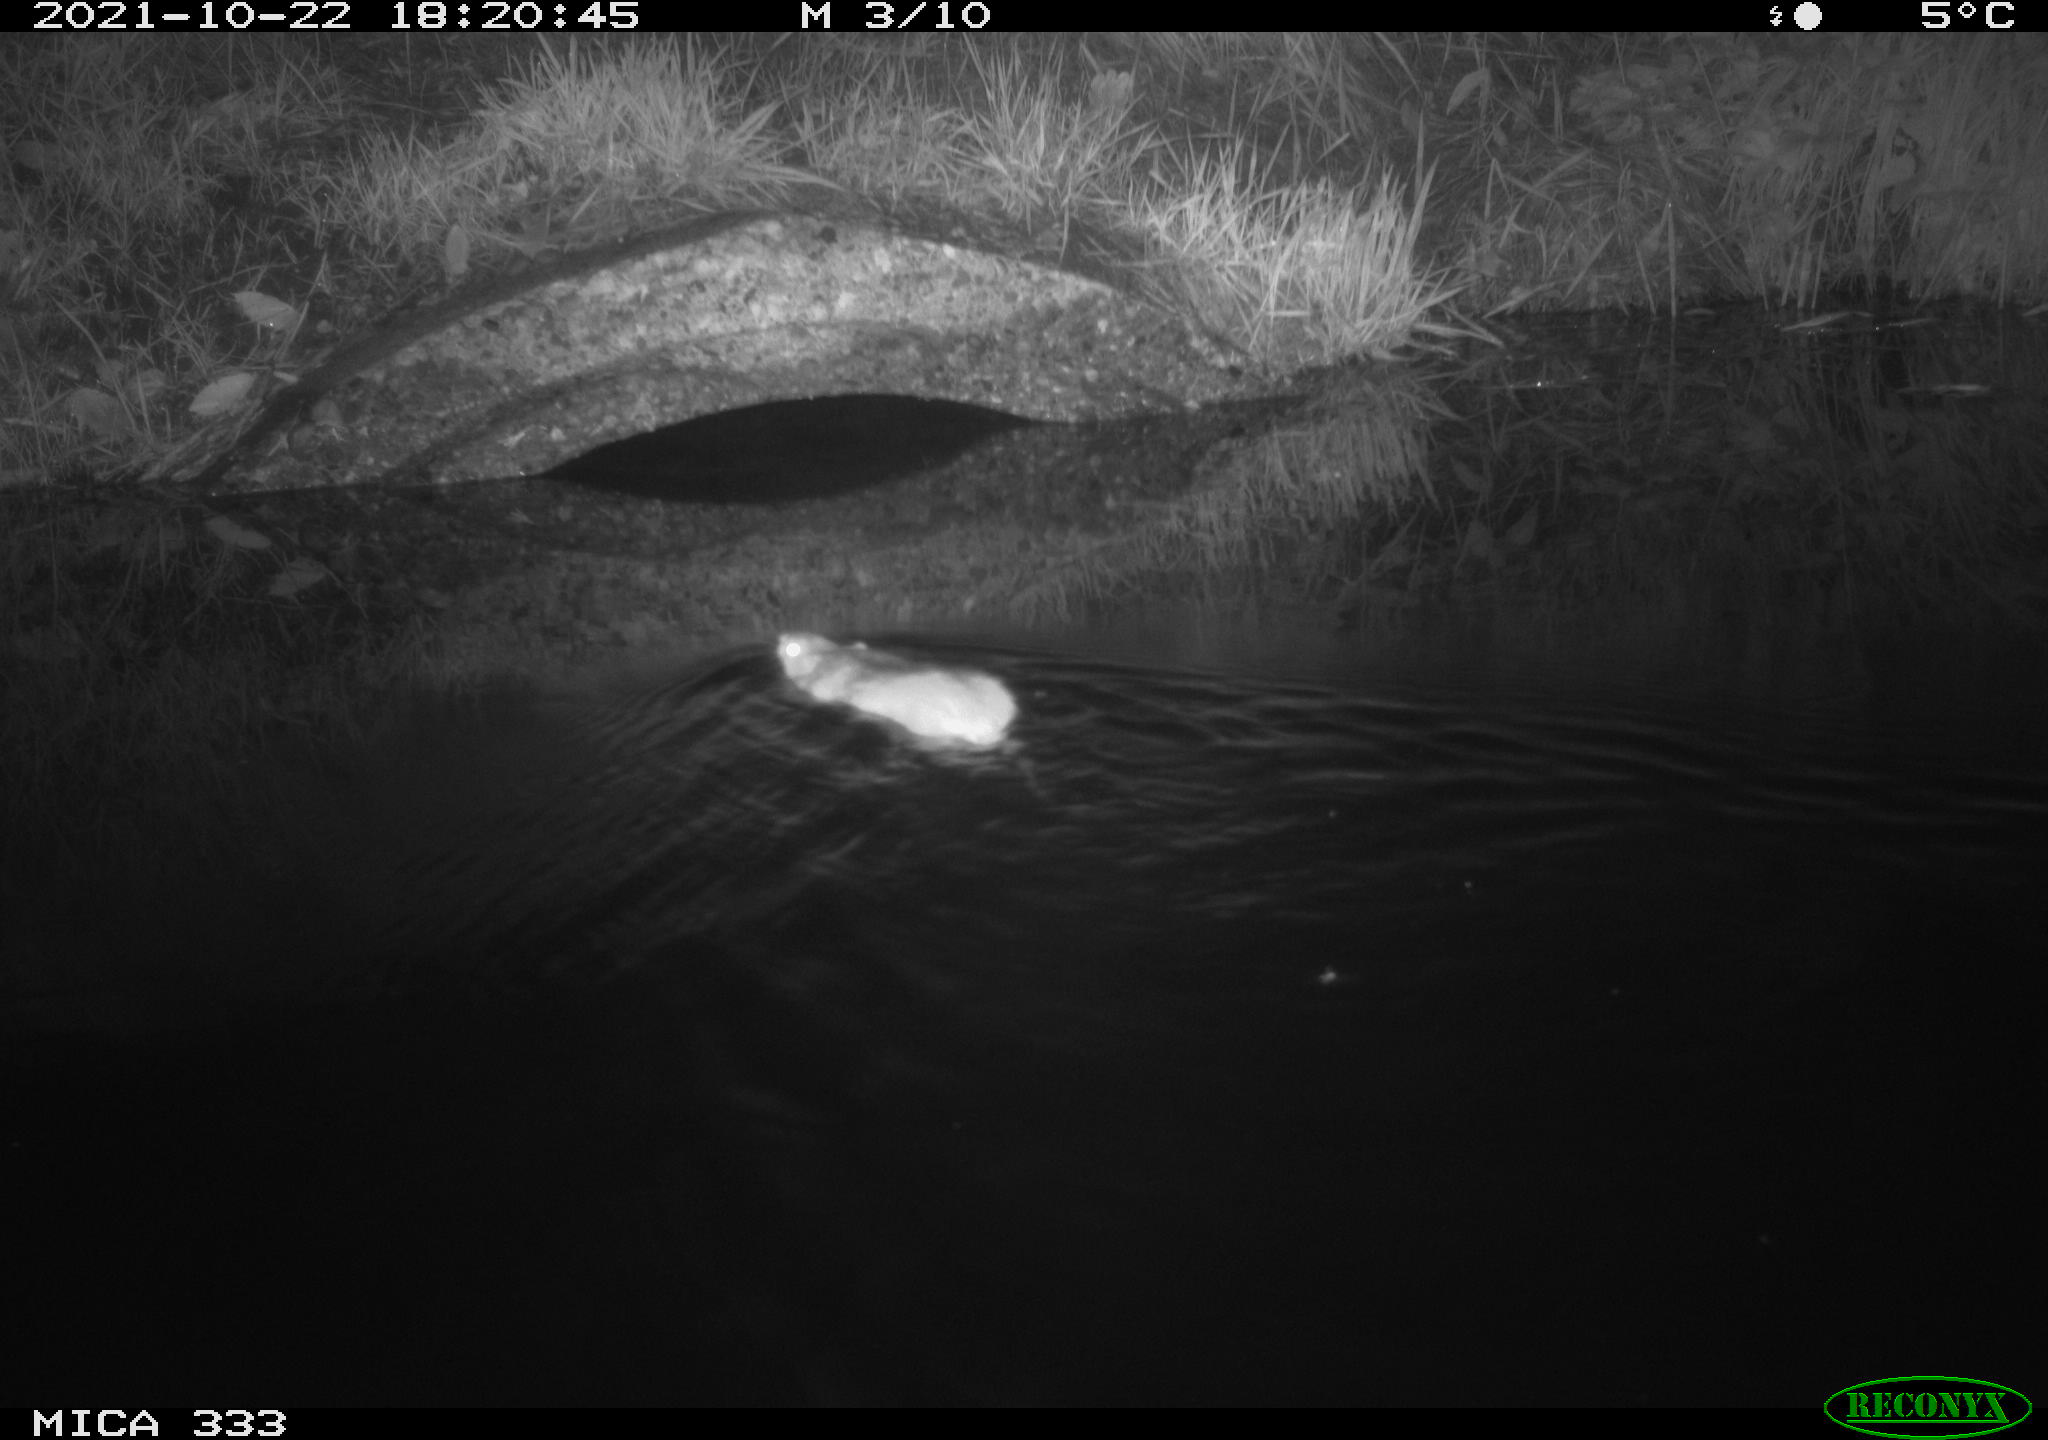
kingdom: Animalia
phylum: Chordata
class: Mammalia
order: Rodentia
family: Muridae
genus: Rattus
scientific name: Rattus norvegicus
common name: Brown rat
